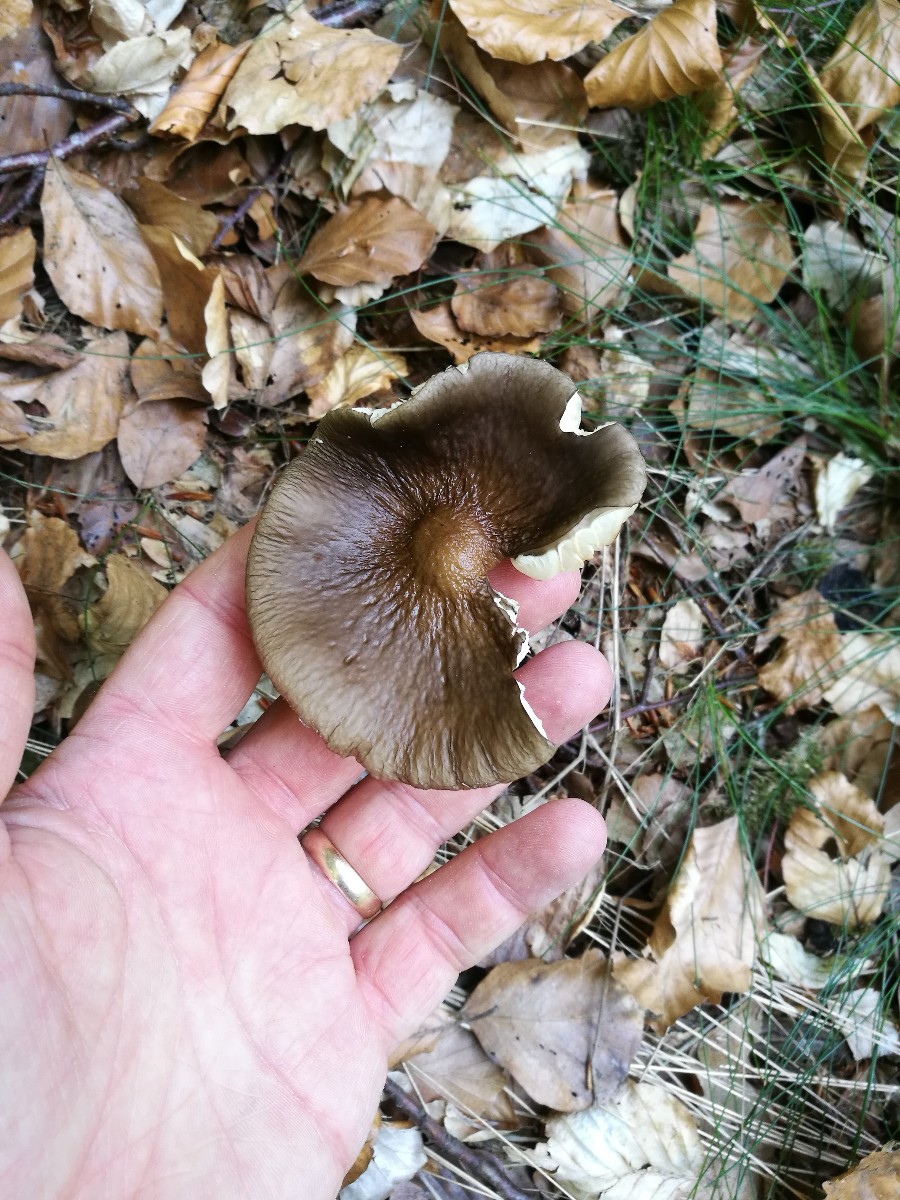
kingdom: Fungi
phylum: Basidiomycota
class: Agaricomycetes
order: Agaricales
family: Physalacriaceae
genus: Hymenopellis
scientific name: Hymenopellis radicata
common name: almindelig pælerodshat
